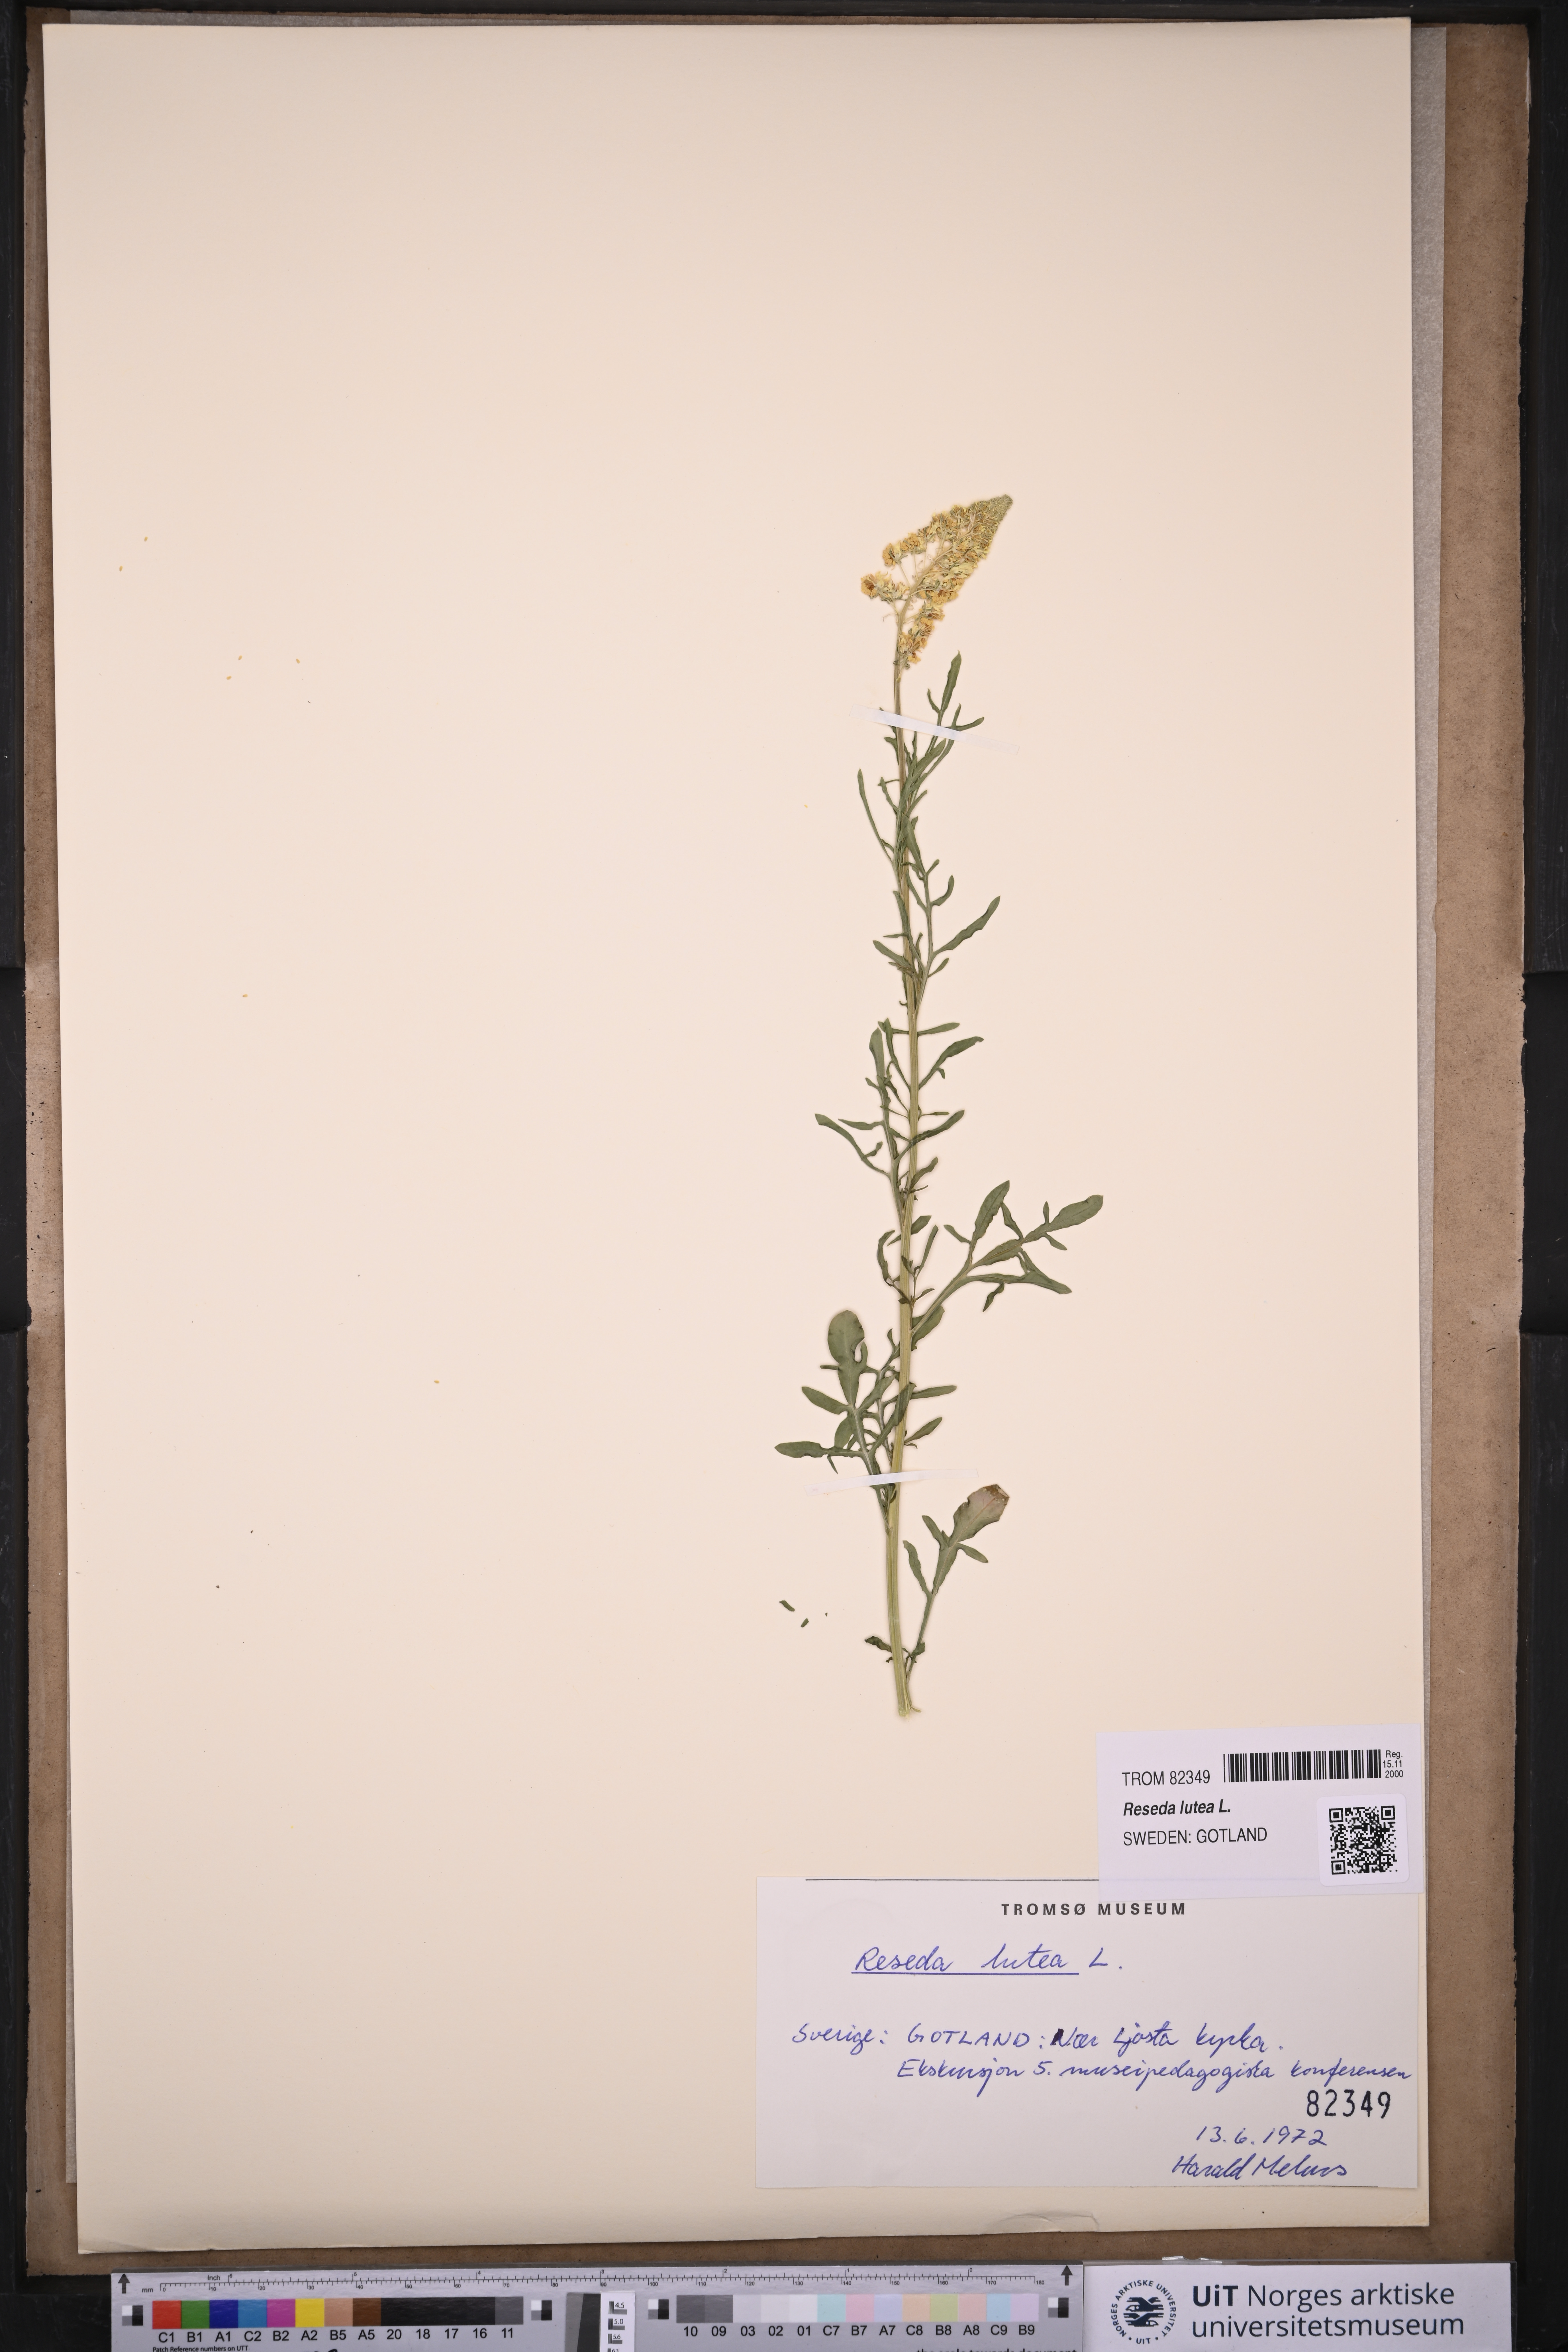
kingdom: Plantae
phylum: Tracheophyta
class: Magnoliopsida
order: Brassicales
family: Resedaceae
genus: Reseda
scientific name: Reseda lutea
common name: Wild mignonette
